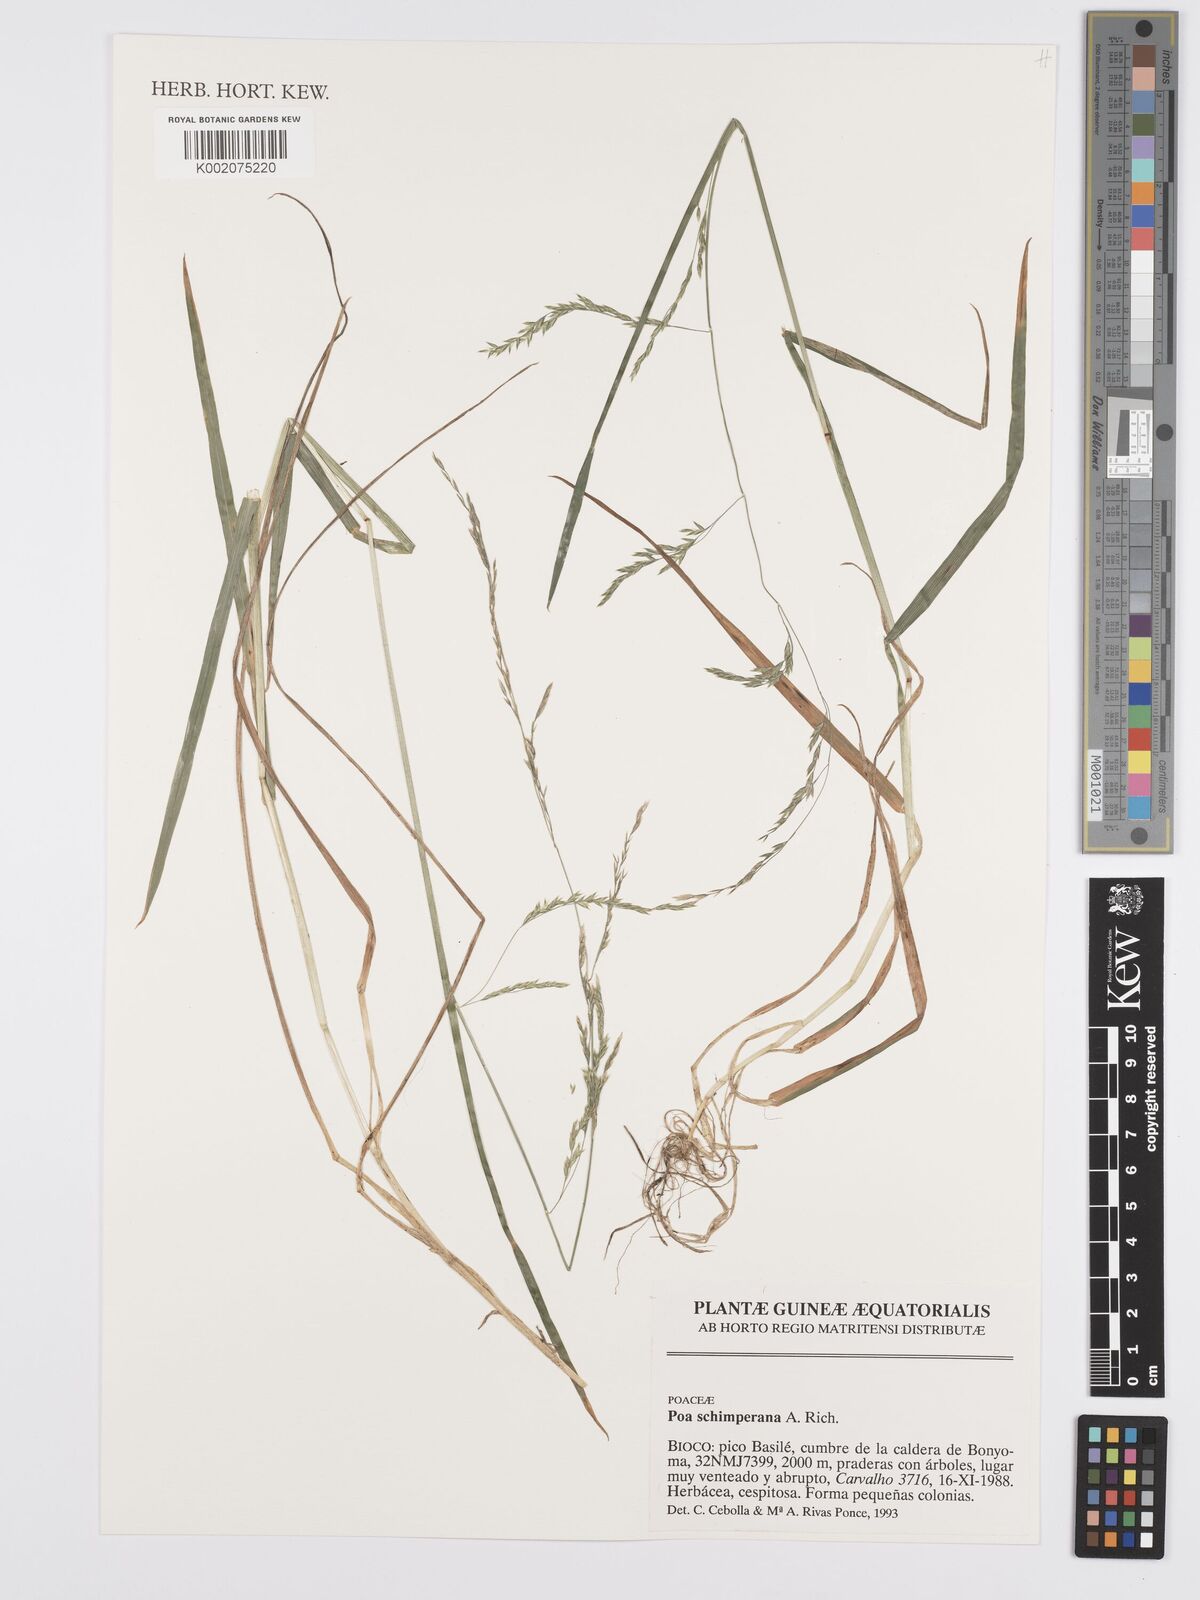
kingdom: Plantae
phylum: Tracheophyta
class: Liliopsida
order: Poales
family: Poaceae
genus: Poa
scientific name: Poa schimperiana
